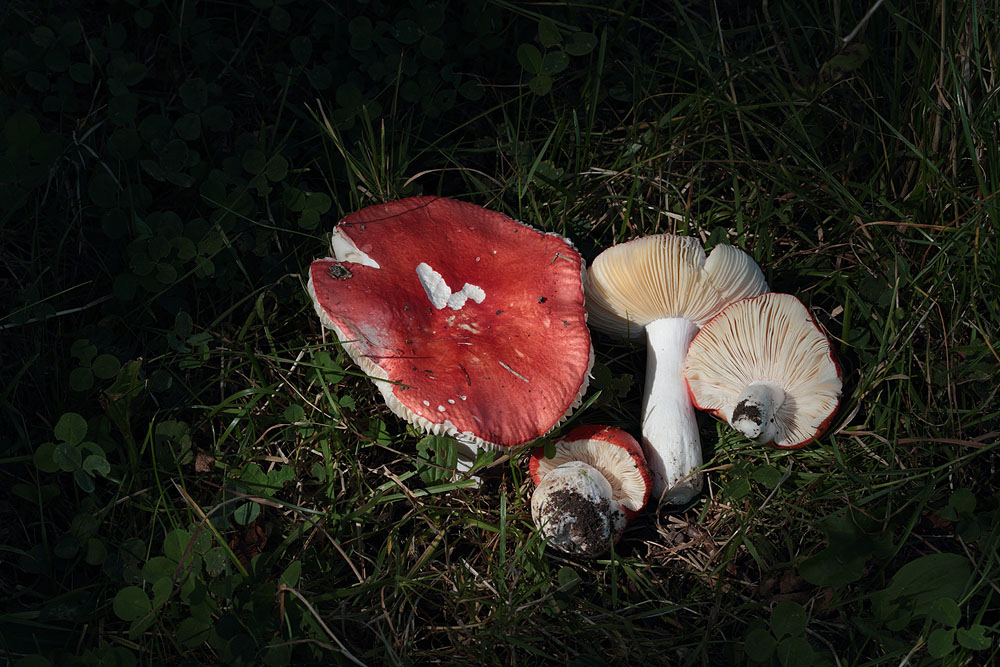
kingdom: Fungi
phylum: Basidiomycota
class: Agaricomycetes
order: Russulales
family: Russulaceae
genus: Russula
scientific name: Russula pseudointegra
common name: cinnoberrød skørhat
